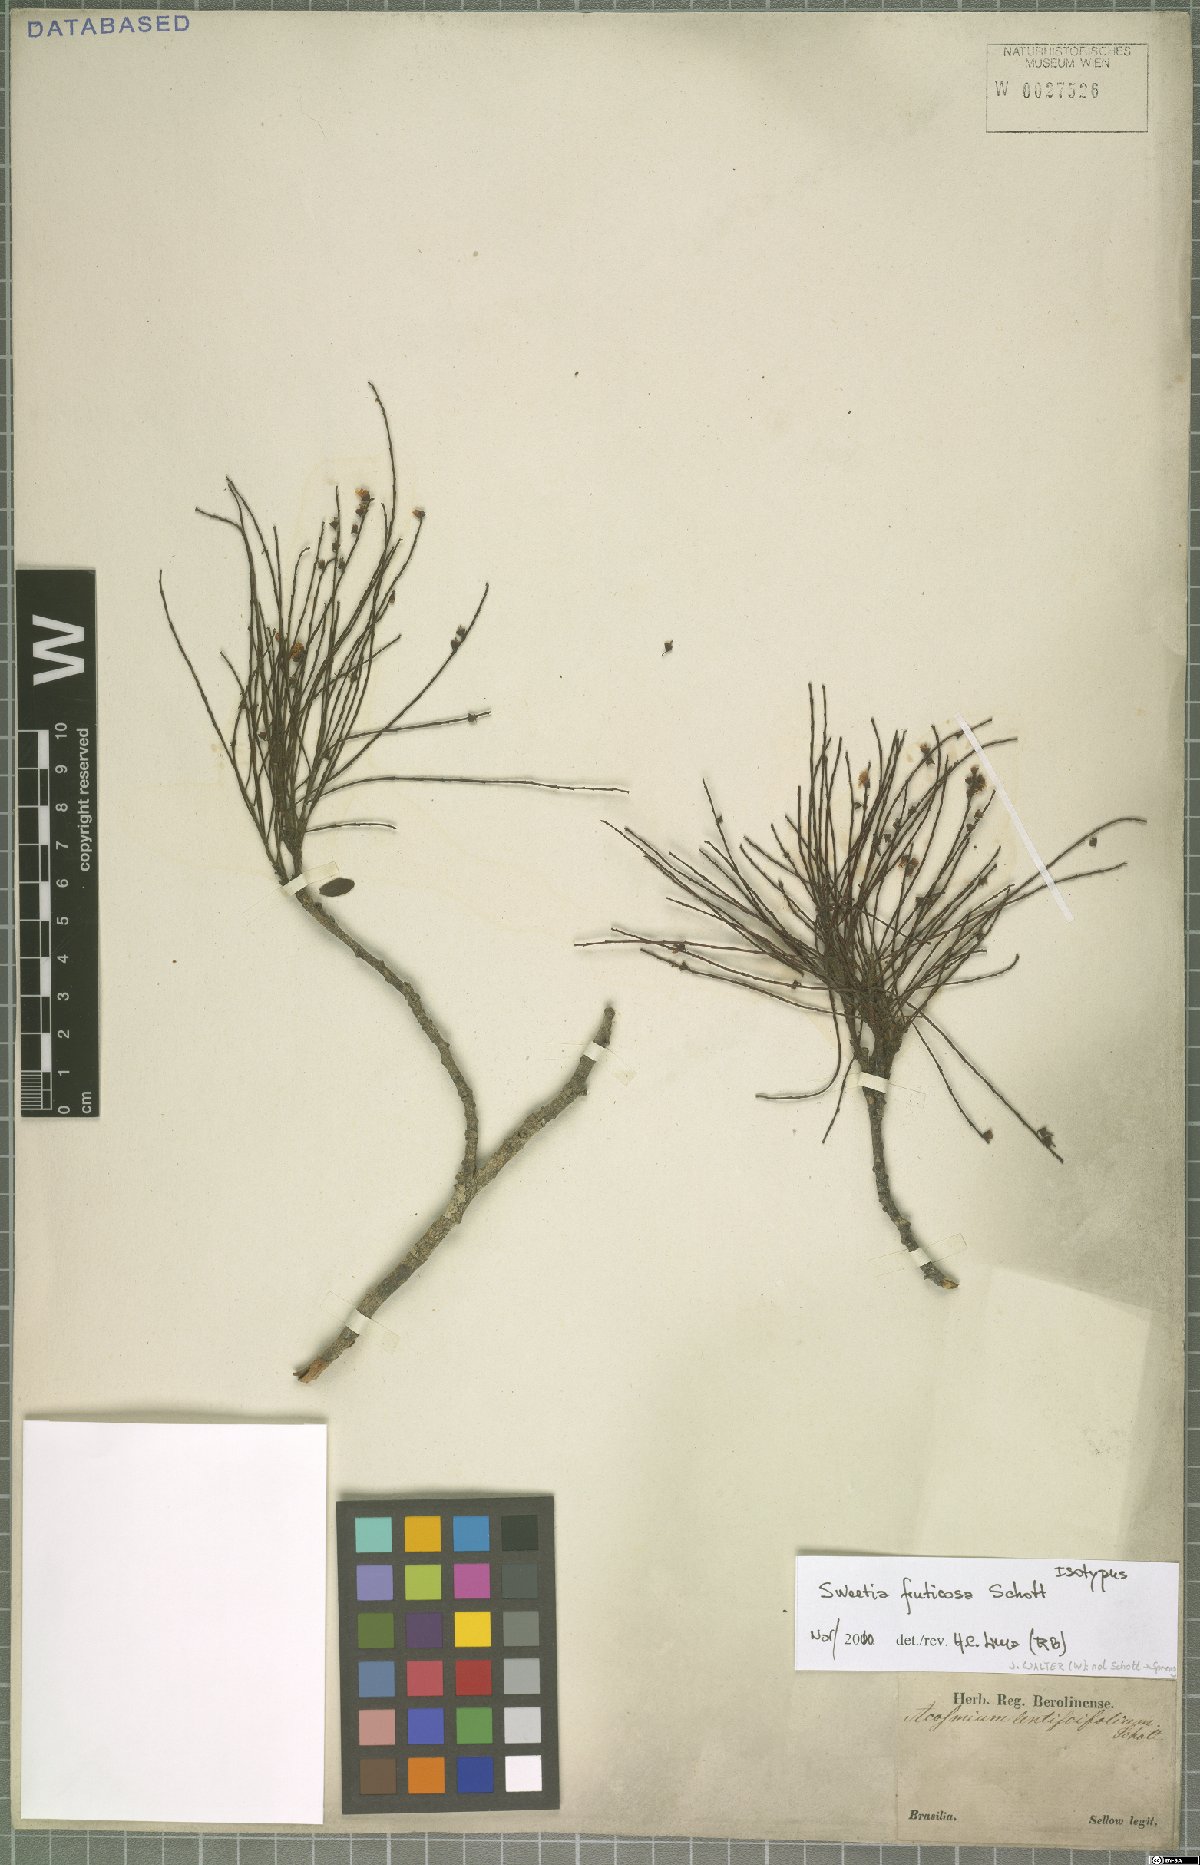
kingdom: Plantae
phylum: Tracheophyta
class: Magnoliopsida
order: Fabales
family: Fabaceae
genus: Sweetia
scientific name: Sweetia fruticosa
